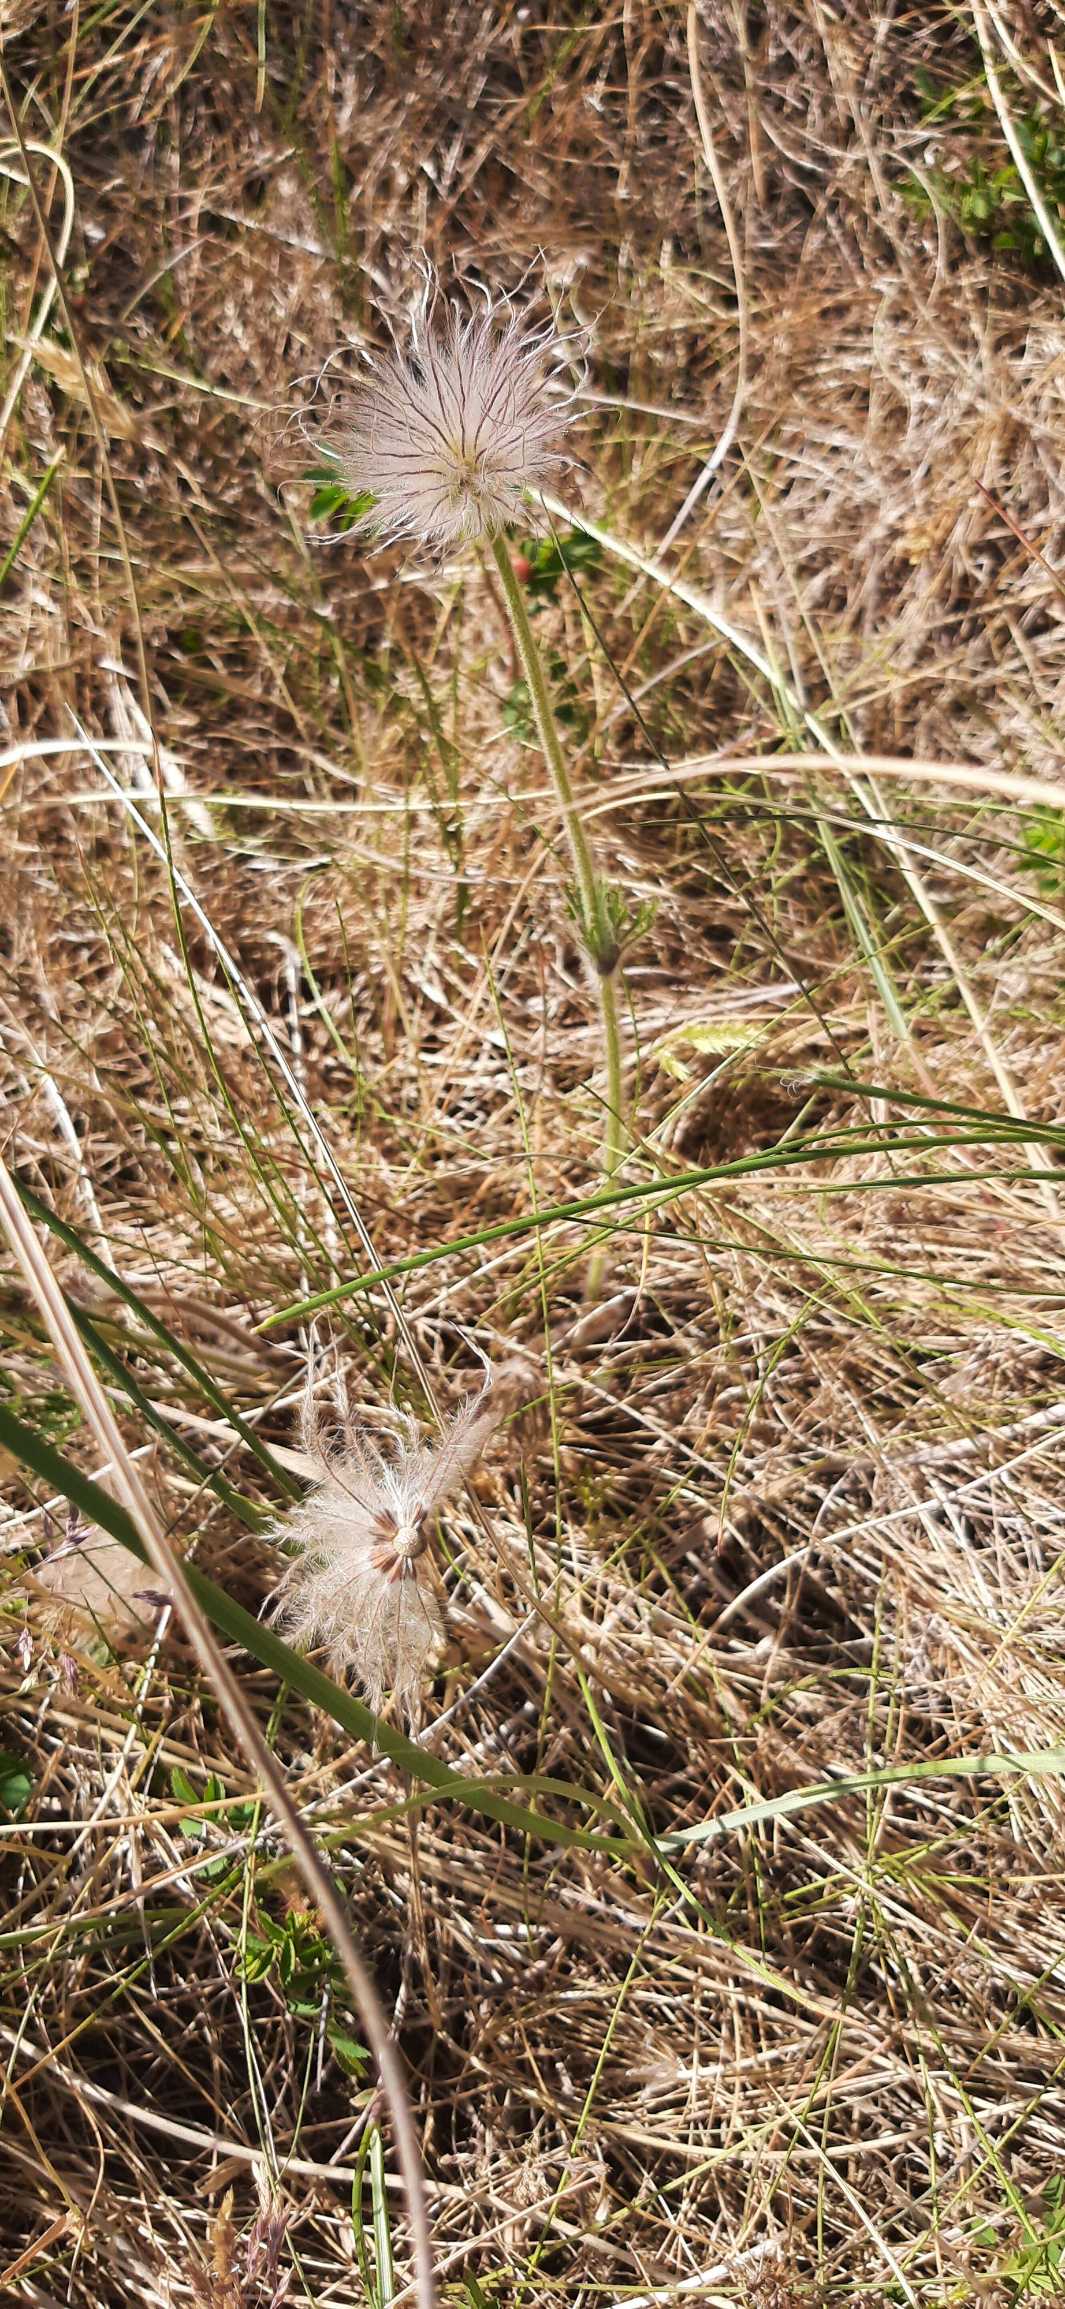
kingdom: Plantae
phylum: Tracheophyta
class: Magnoliopsida
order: Ranunculales
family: Ranunculaceae
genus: Pulsatilla
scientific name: Pulsatilla pratensis
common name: Nikkende kobjælde
